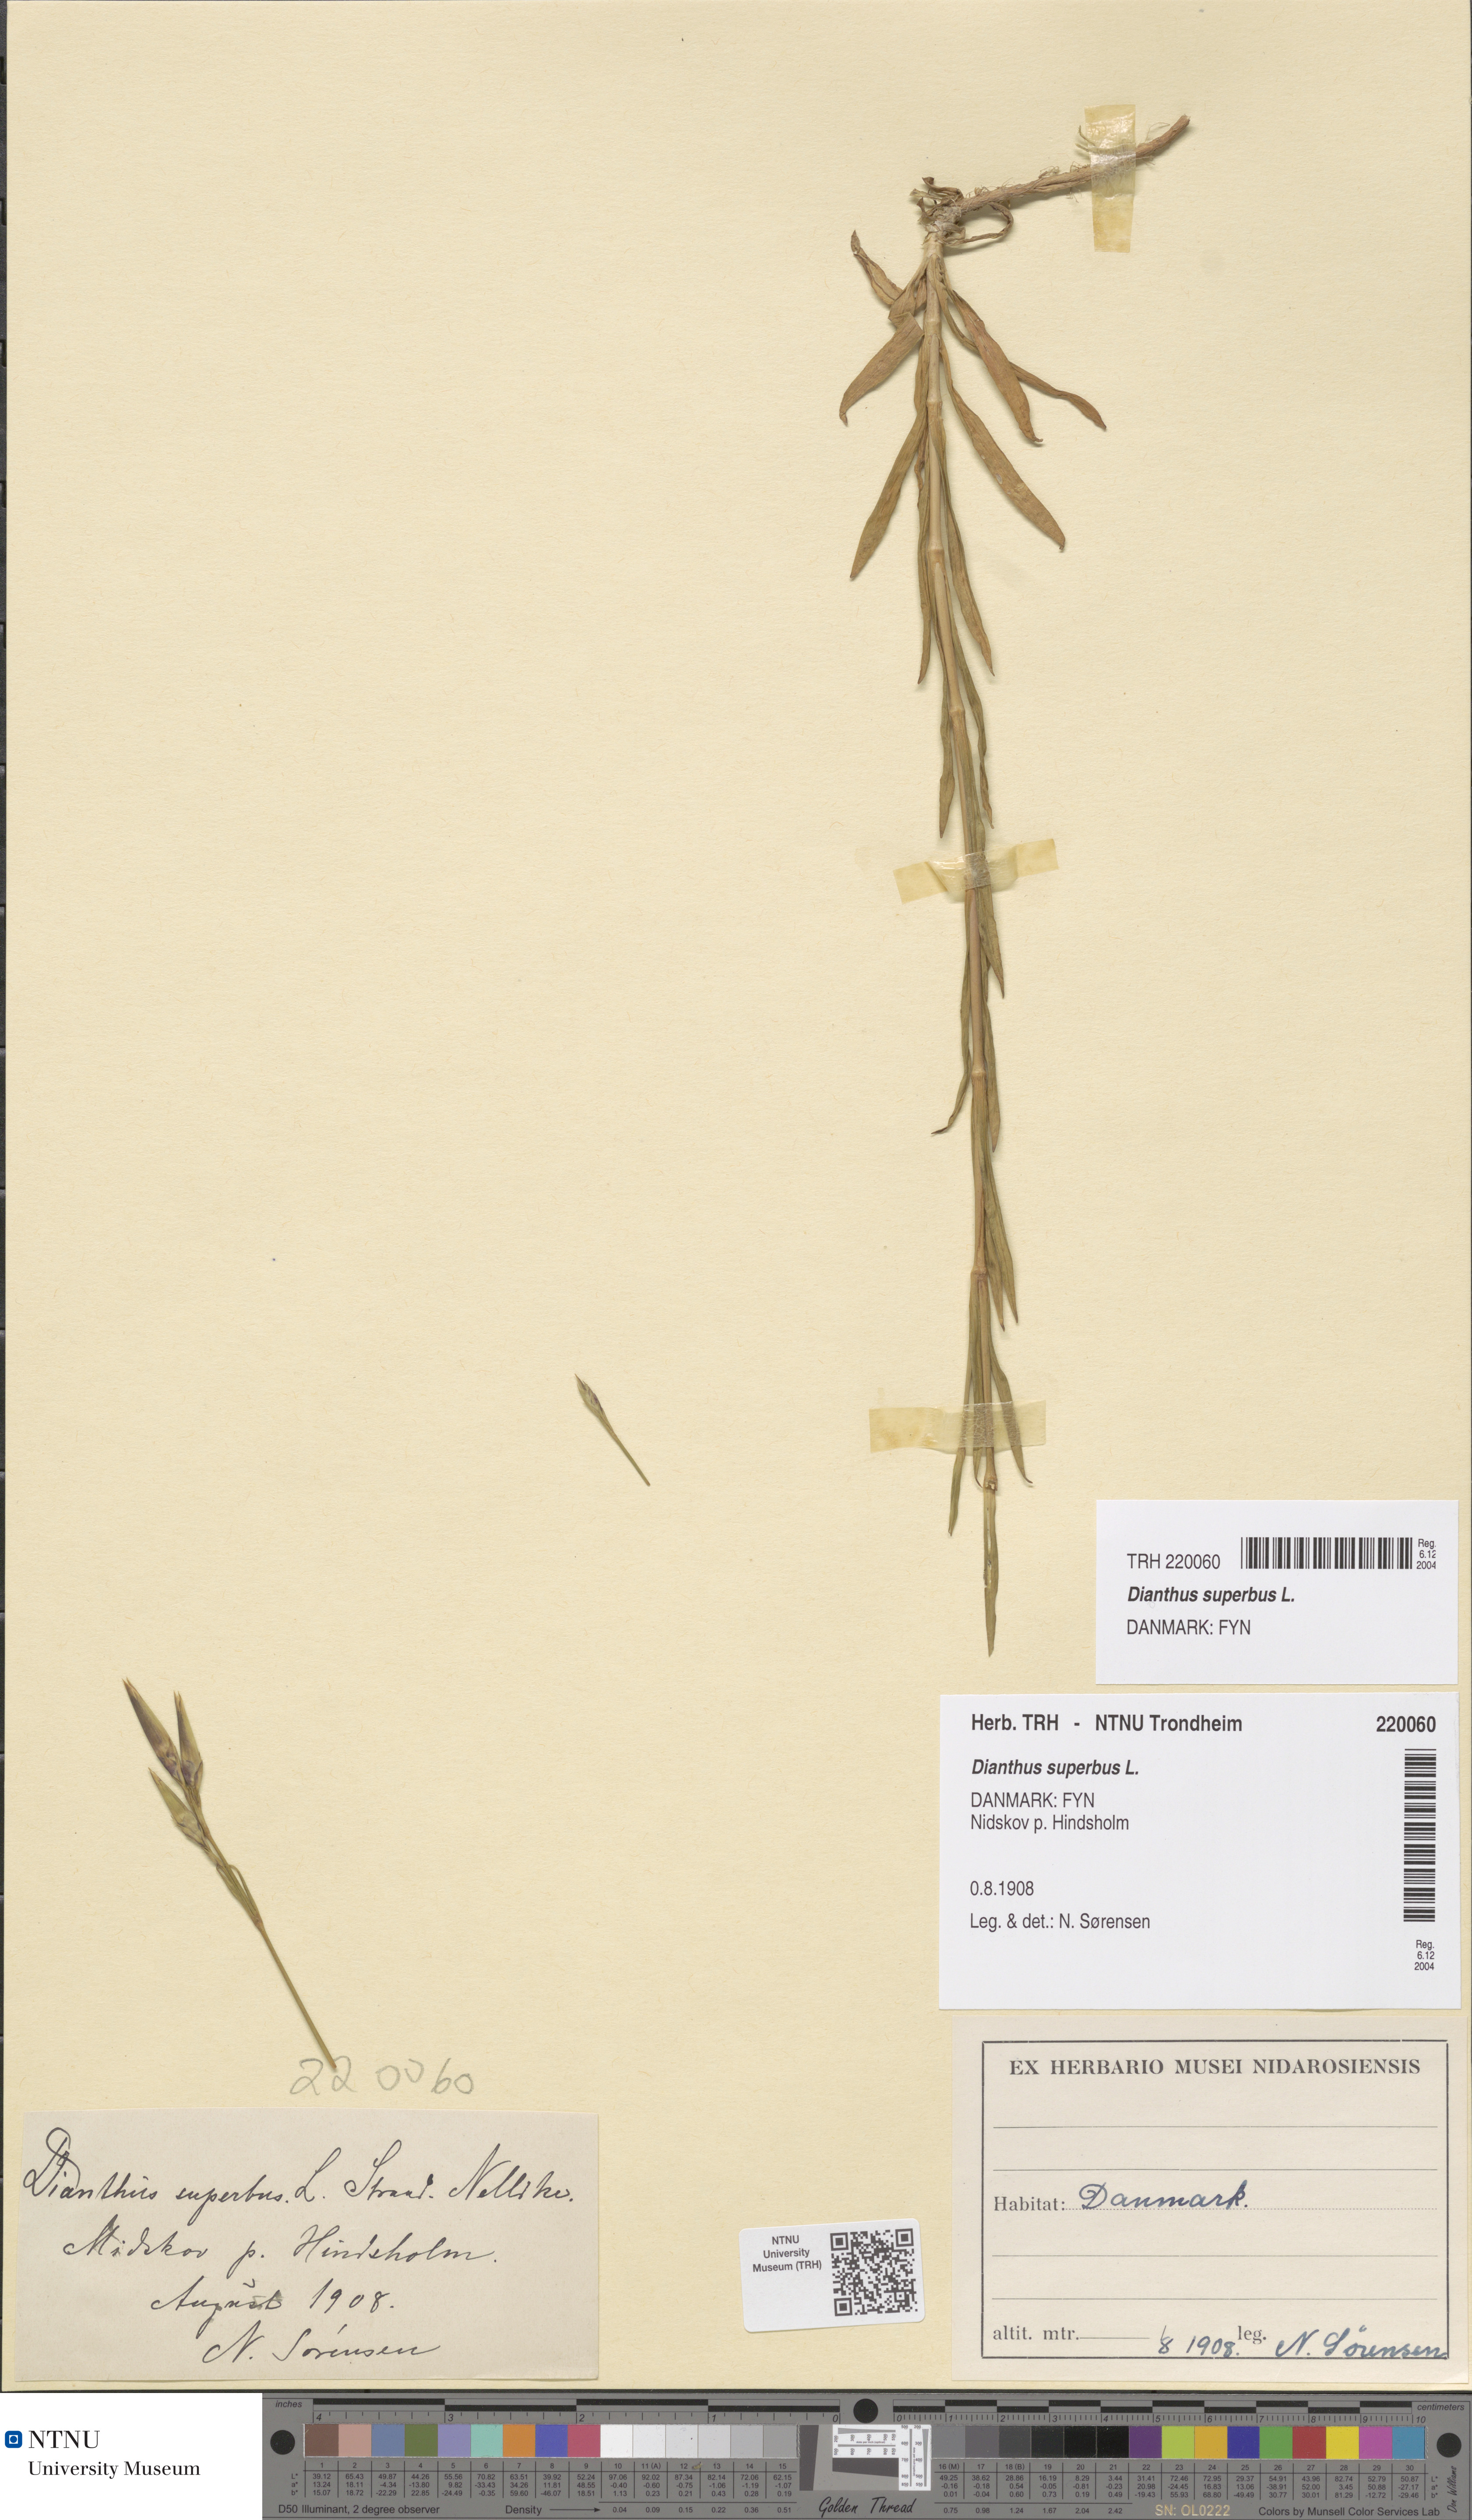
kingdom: Plantae
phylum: Tracheophyta
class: Magnoliopsida
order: Caryophyllales
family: Caryophyllaceae
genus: Dianthus
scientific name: Dianthus superbus
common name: Fringed pink
